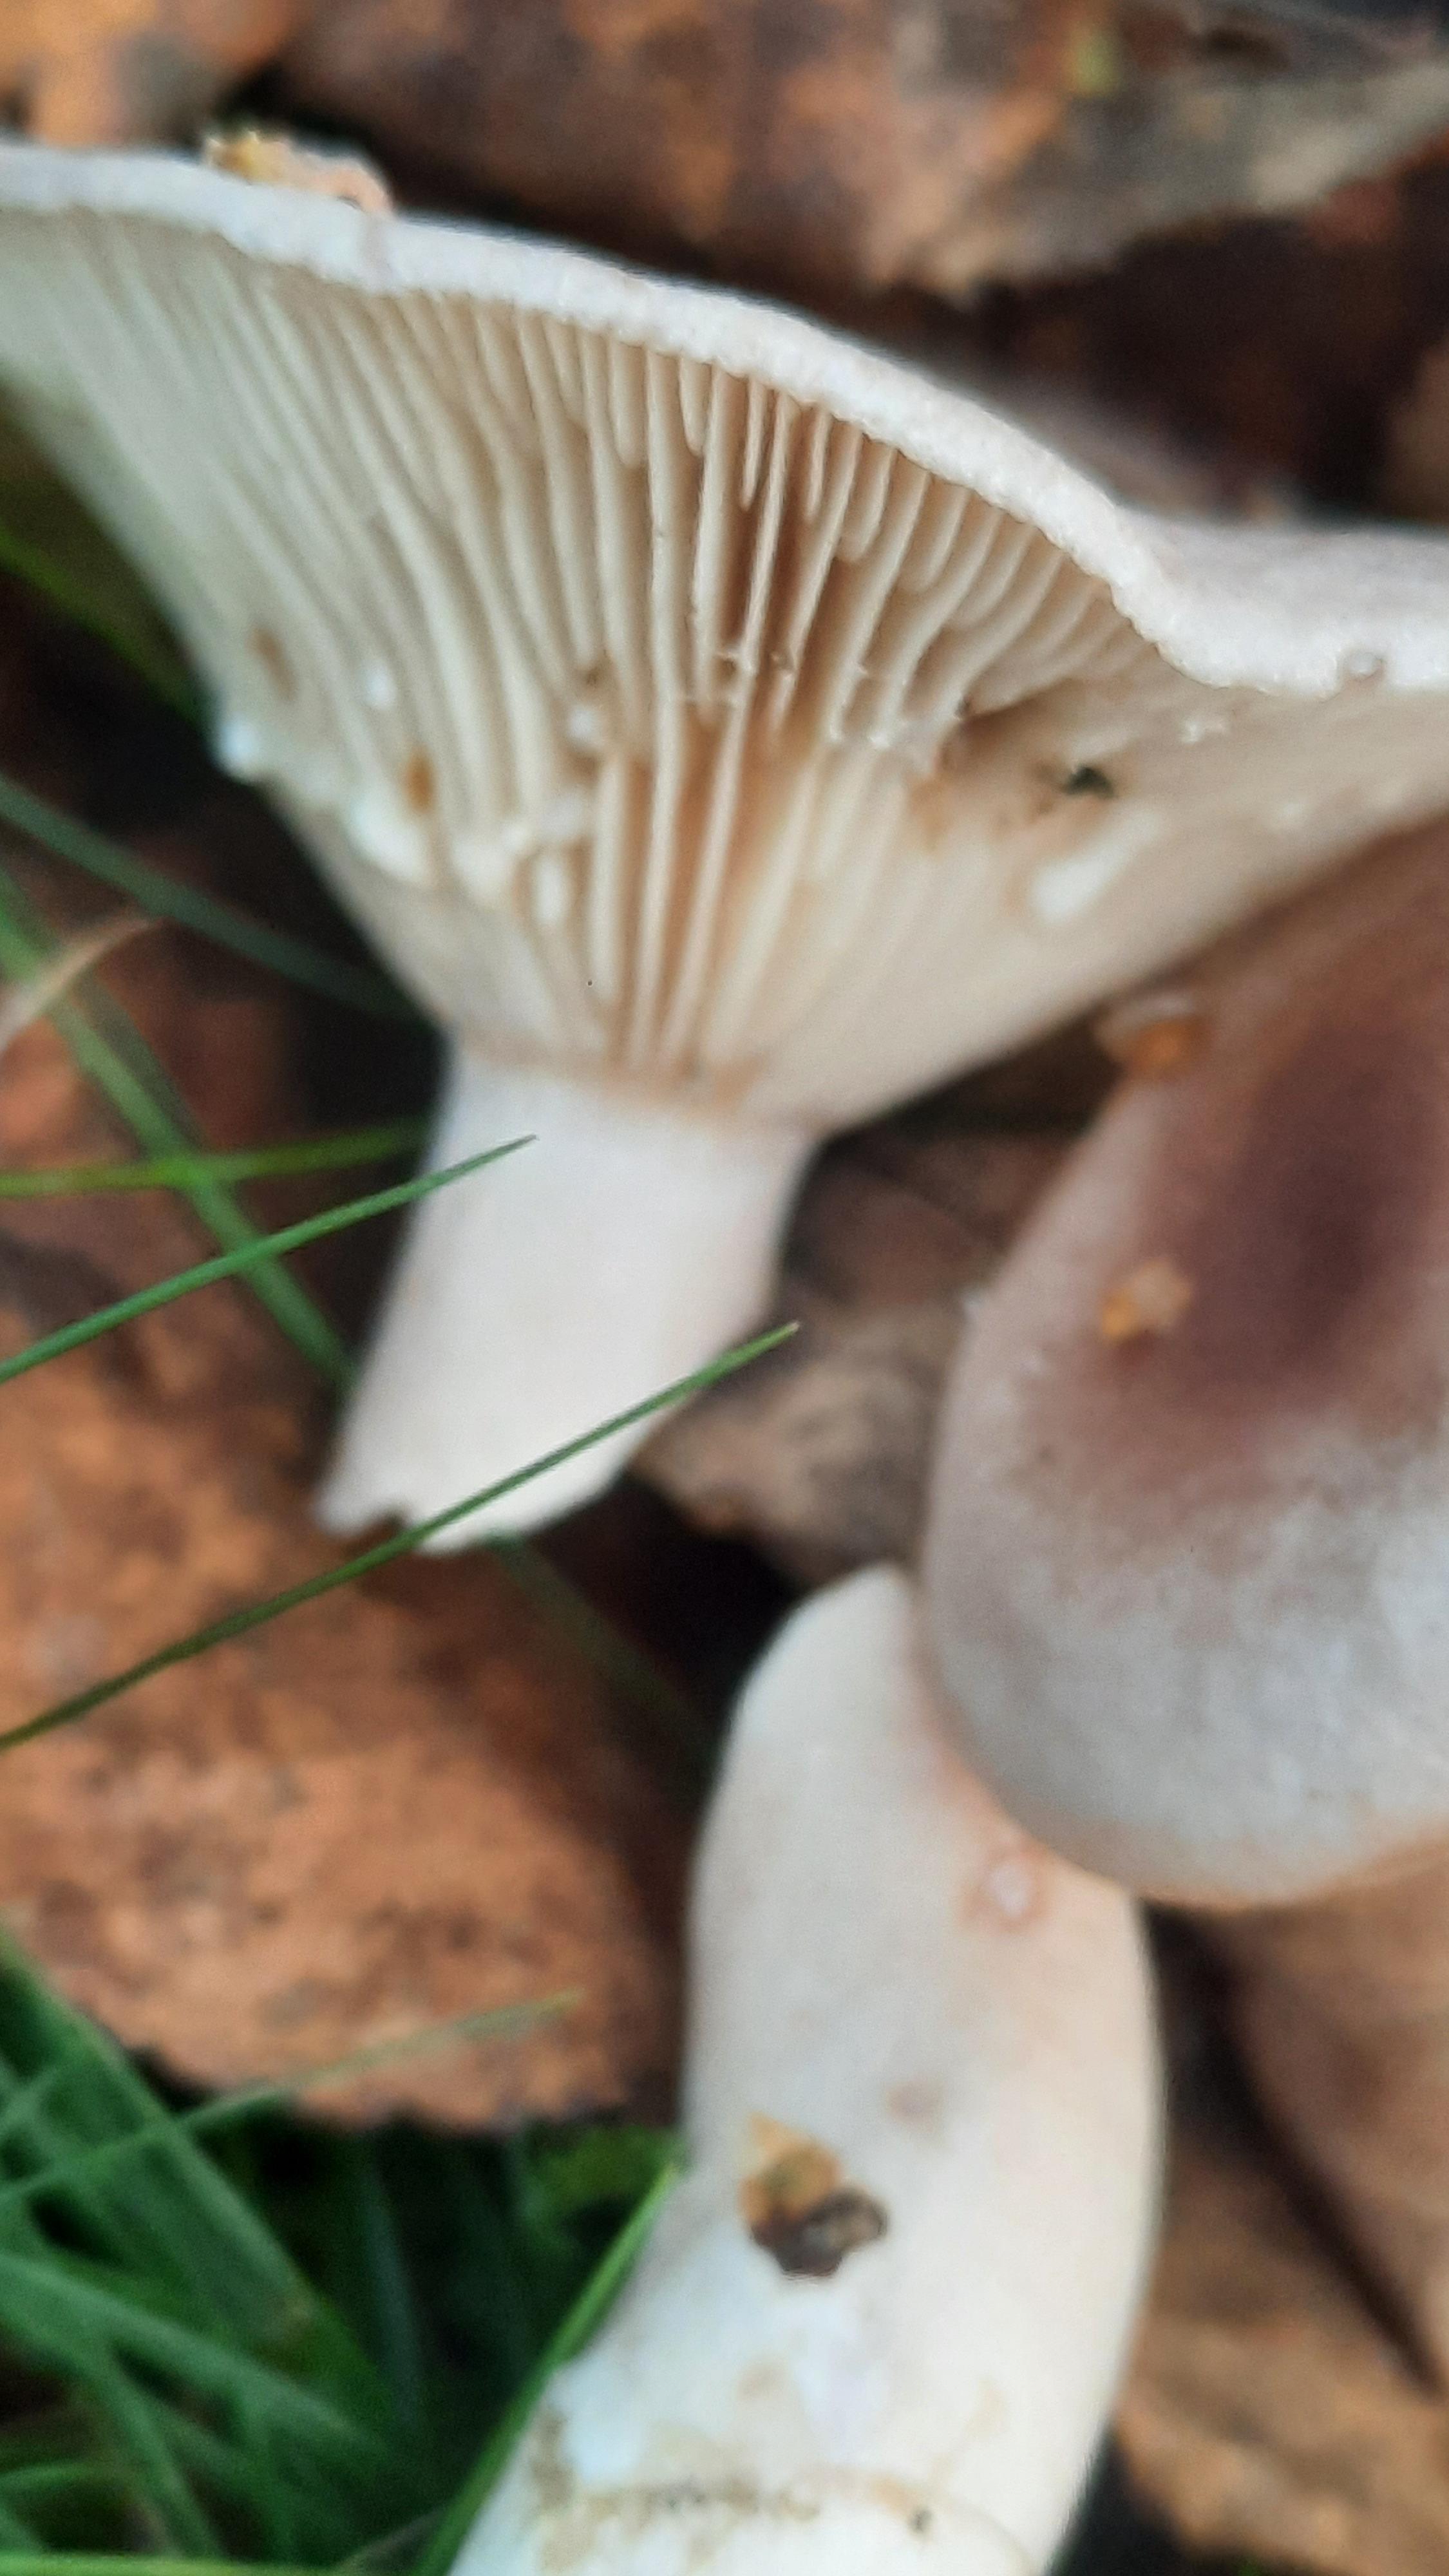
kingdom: Fungi
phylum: Basidiomycota
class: Agaricomycetes
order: Russulales
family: Russulaceae
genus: Lactarius
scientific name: Lactarius vietus
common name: violetgrå mælkehat
